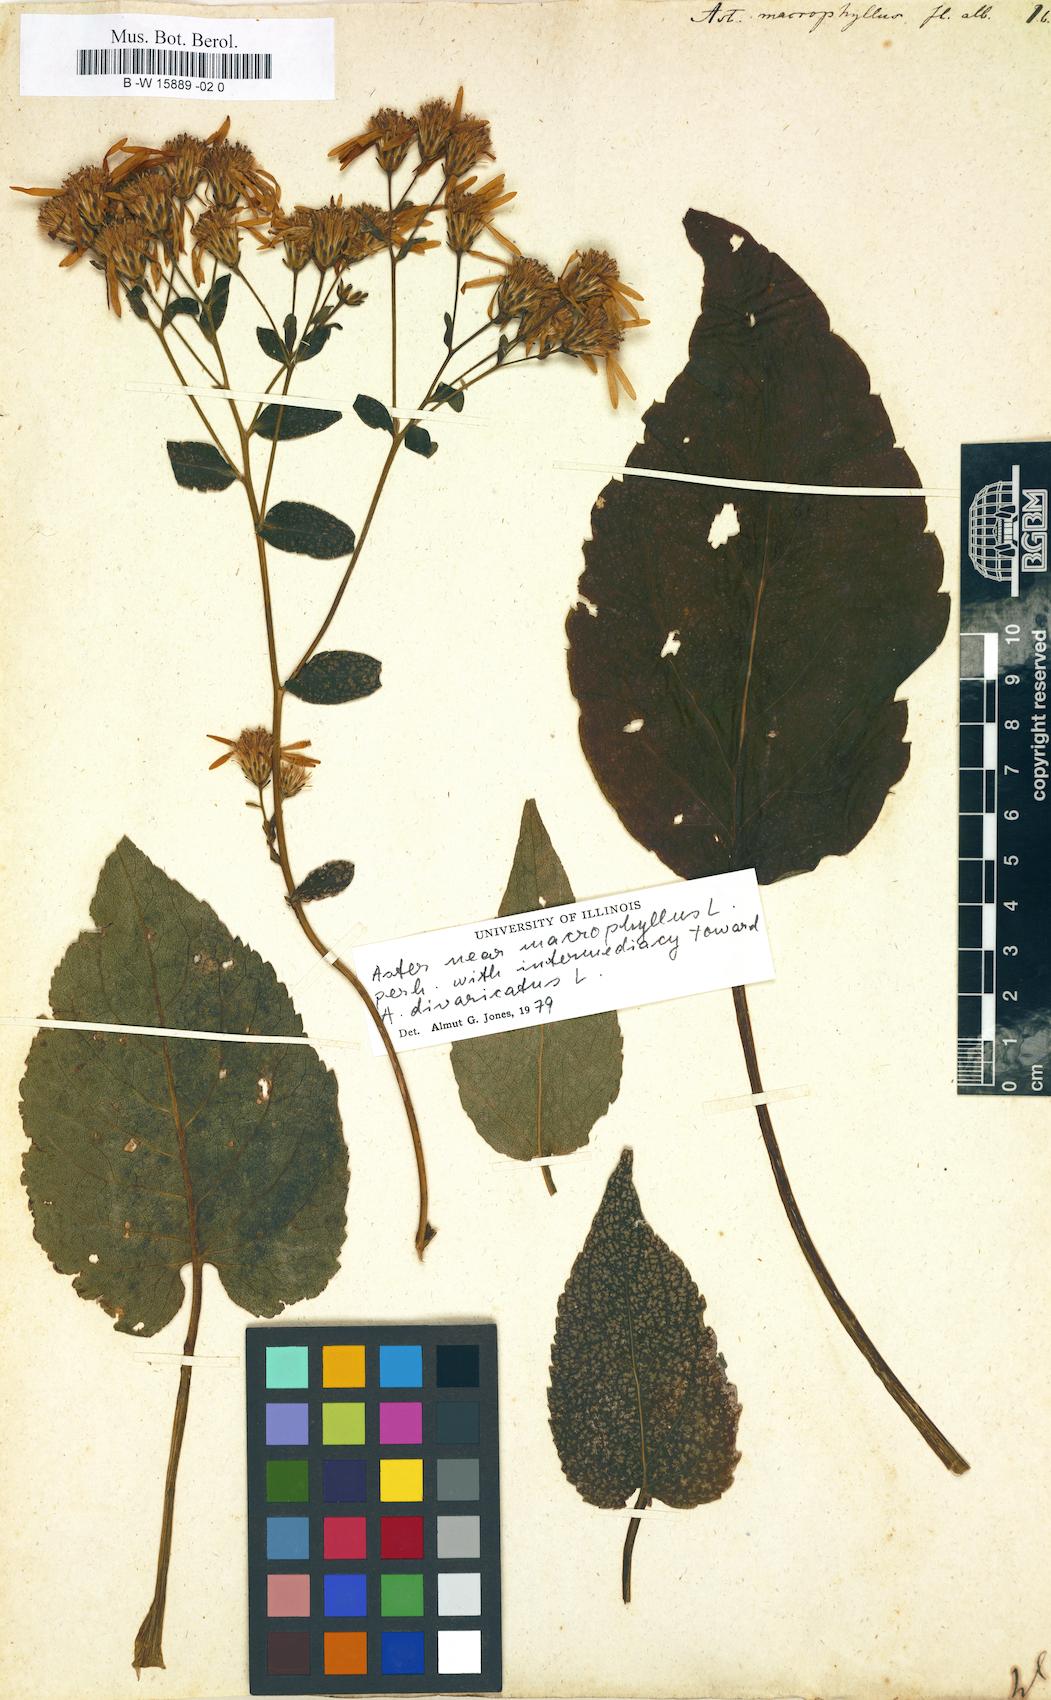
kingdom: Plantae
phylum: Tracheophyta
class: Magnoliopsida
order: Asterales
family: Asteraceae
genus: Eurybia
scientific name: Eurybia macrophylla
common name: Big-leaved aster
